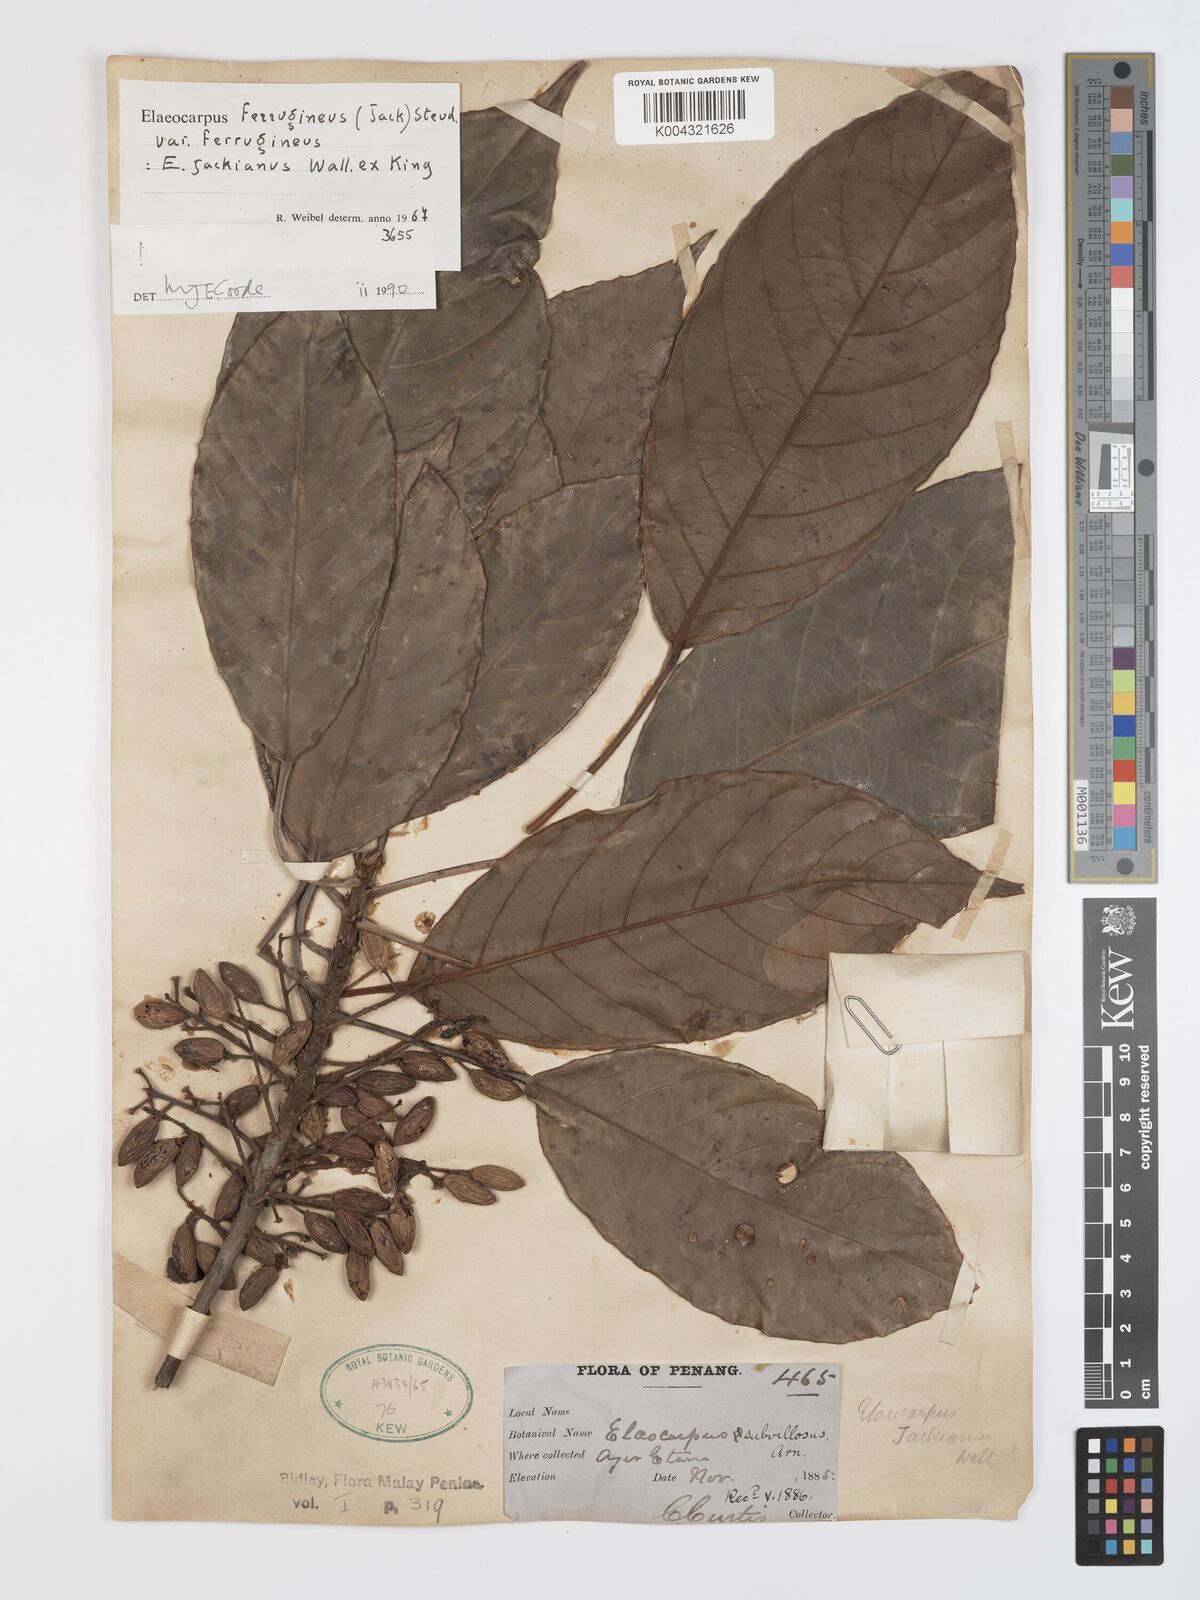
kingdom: Plantae
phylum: Tracheophyta
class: Magnoliopsida
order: Oxalidales
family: Elaeocarpaceae
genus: Elaeocarpus
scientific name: Elaeocarpus ferrugineus
